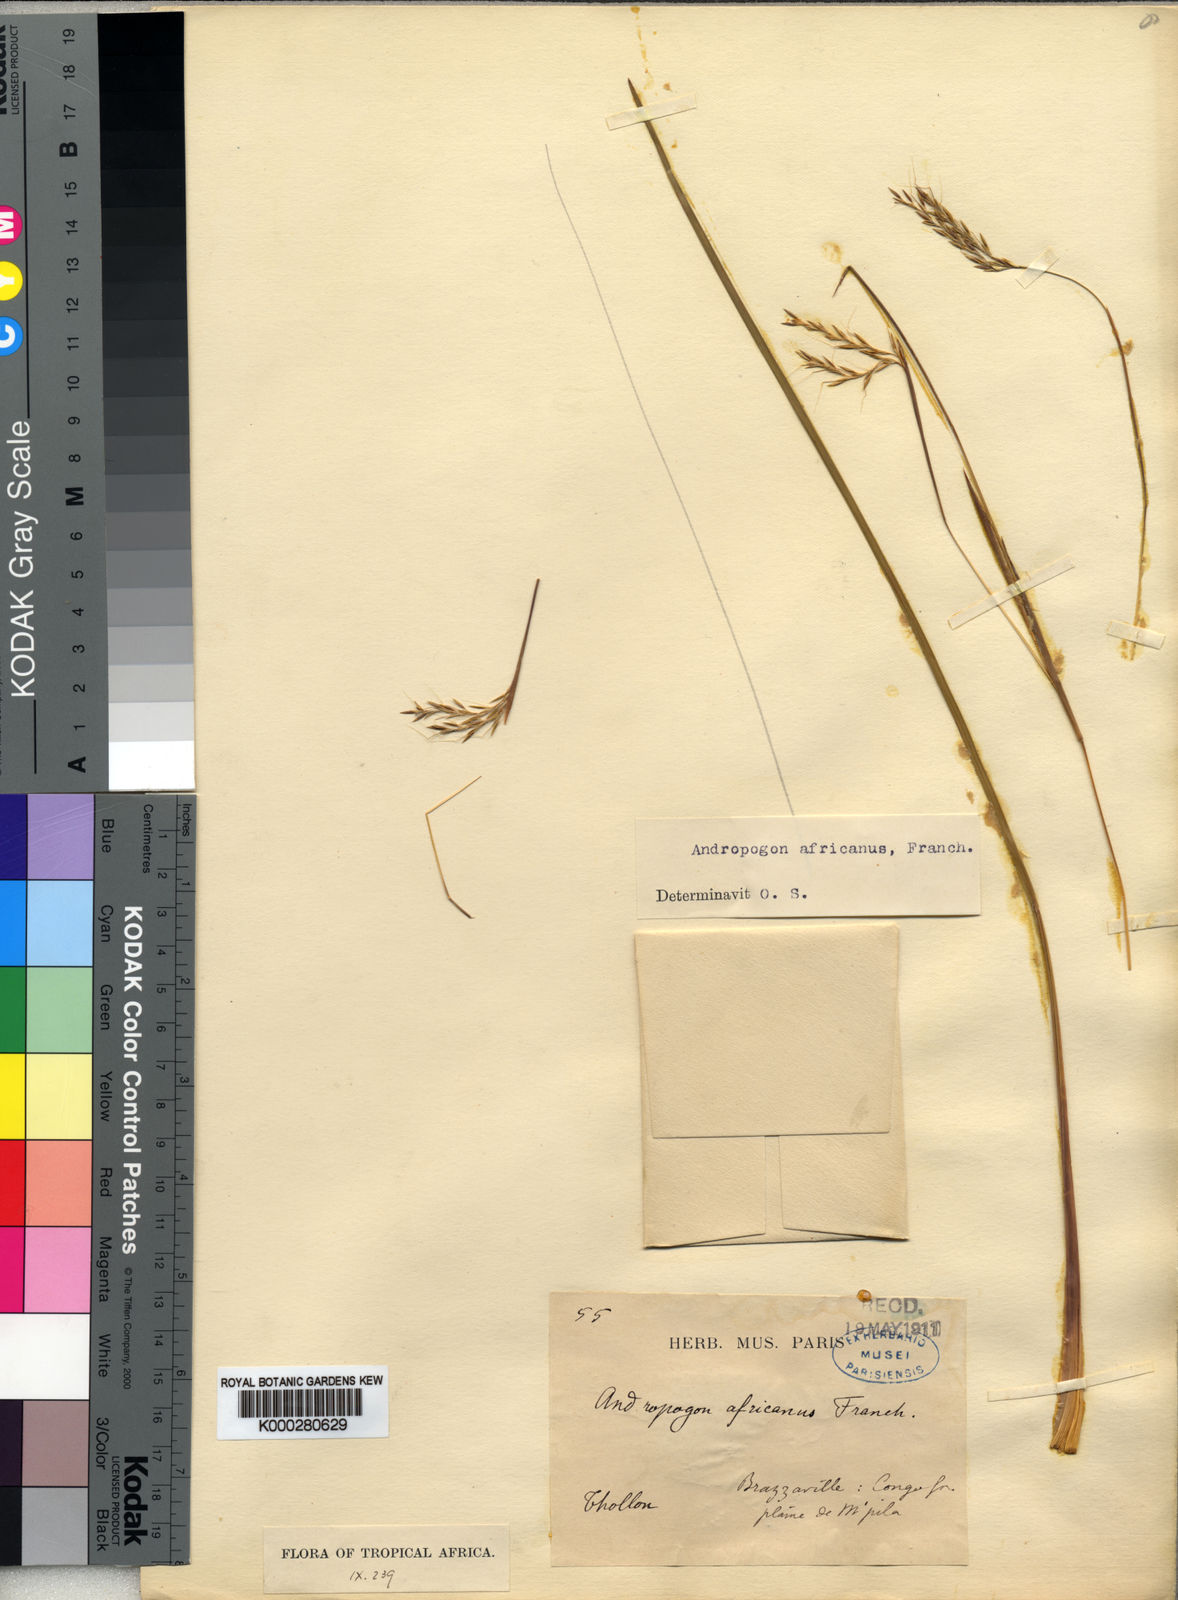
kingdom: Plantae
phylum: Tracheophyta
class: Liliopsida
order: Poales
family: Poaceae
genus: Andropogon
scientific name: Andropogon africanus
